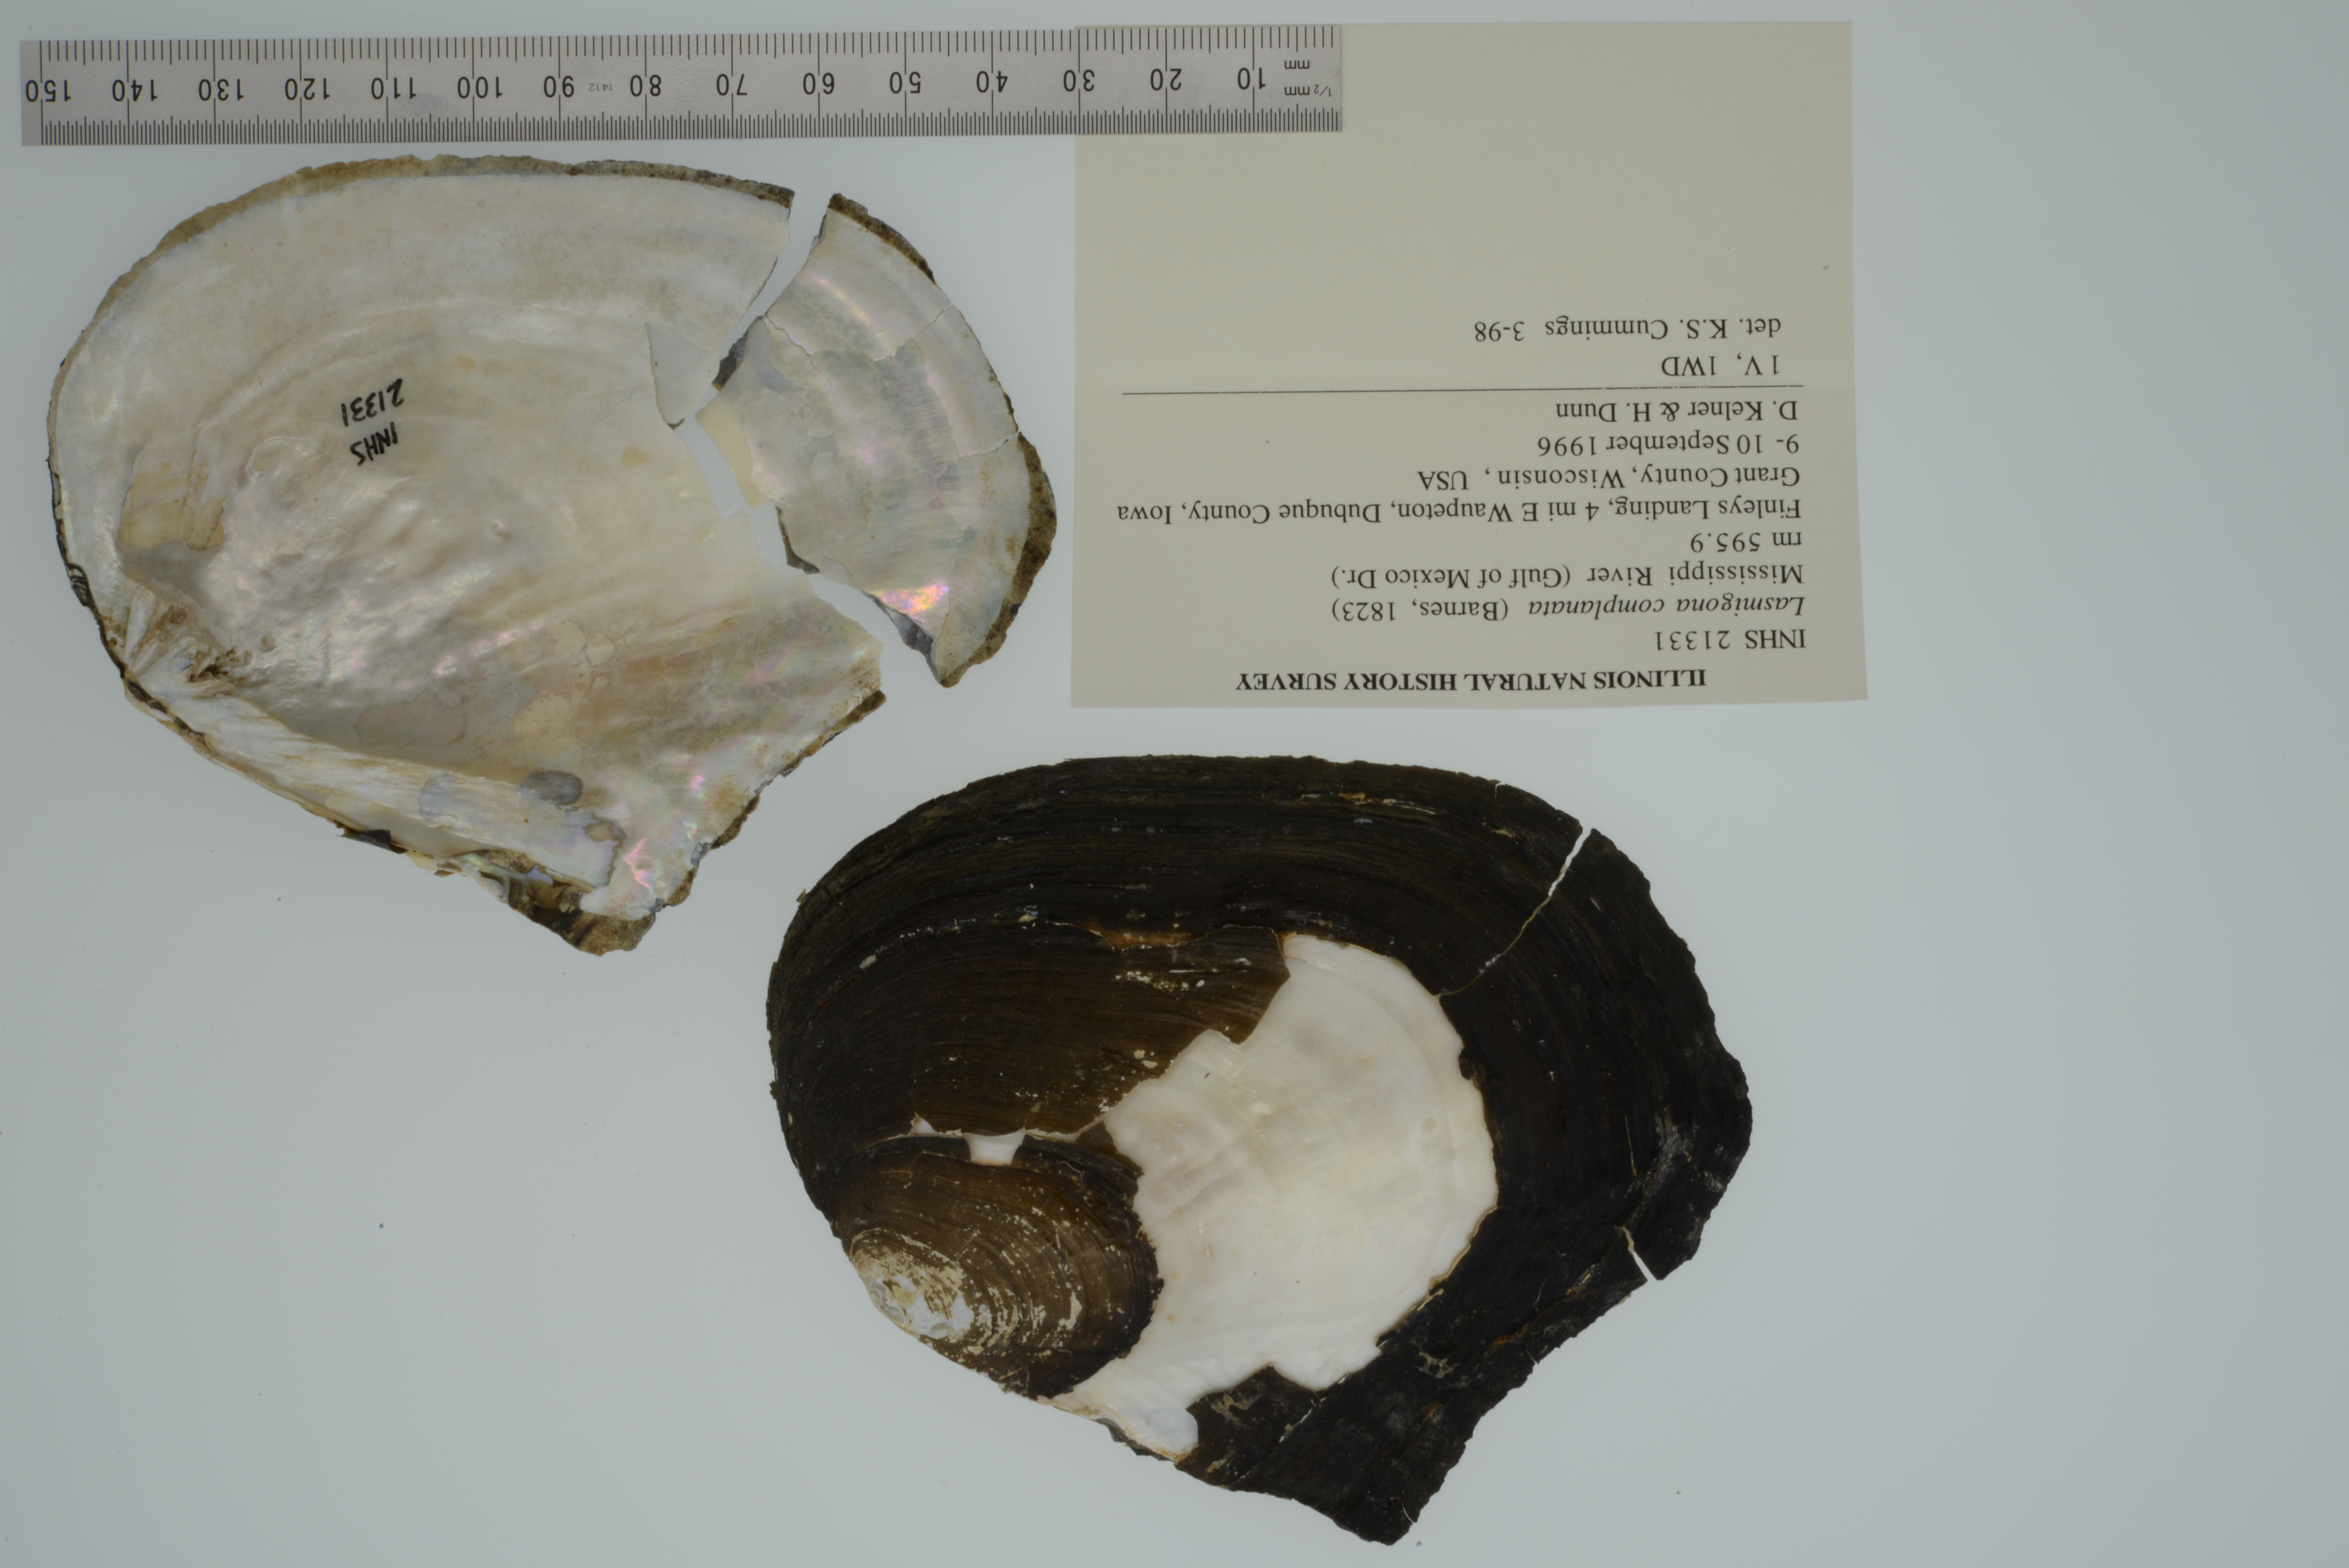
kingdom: Animalia
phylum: Mollusca
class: Bivalvia
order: Unionida
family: Unionidae
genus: Lasmigona
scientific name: Lasmigona complanata
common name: White heelsplitter
